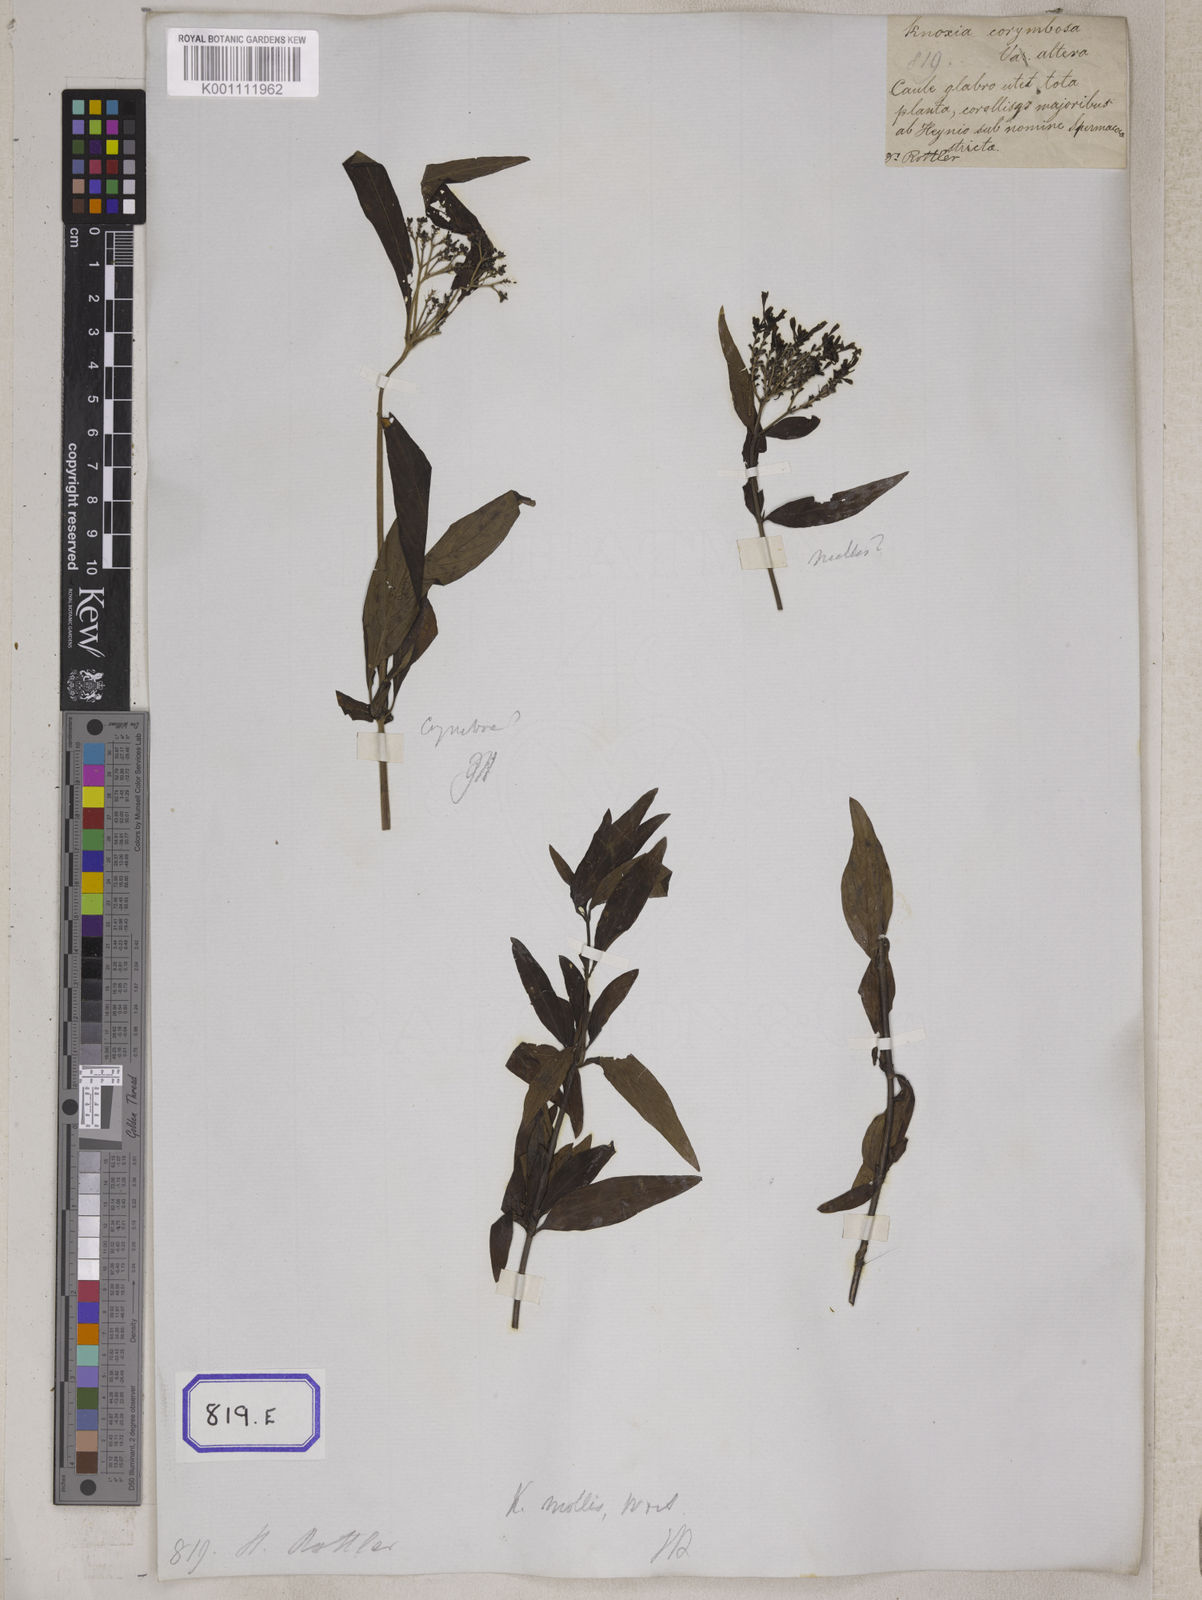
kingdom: Plantae
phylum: Tracheophyta
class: Magnoliopsida
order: Gentianales
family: Rubiaceae
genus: Knoxia
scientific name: Knoxia sumatrensis
